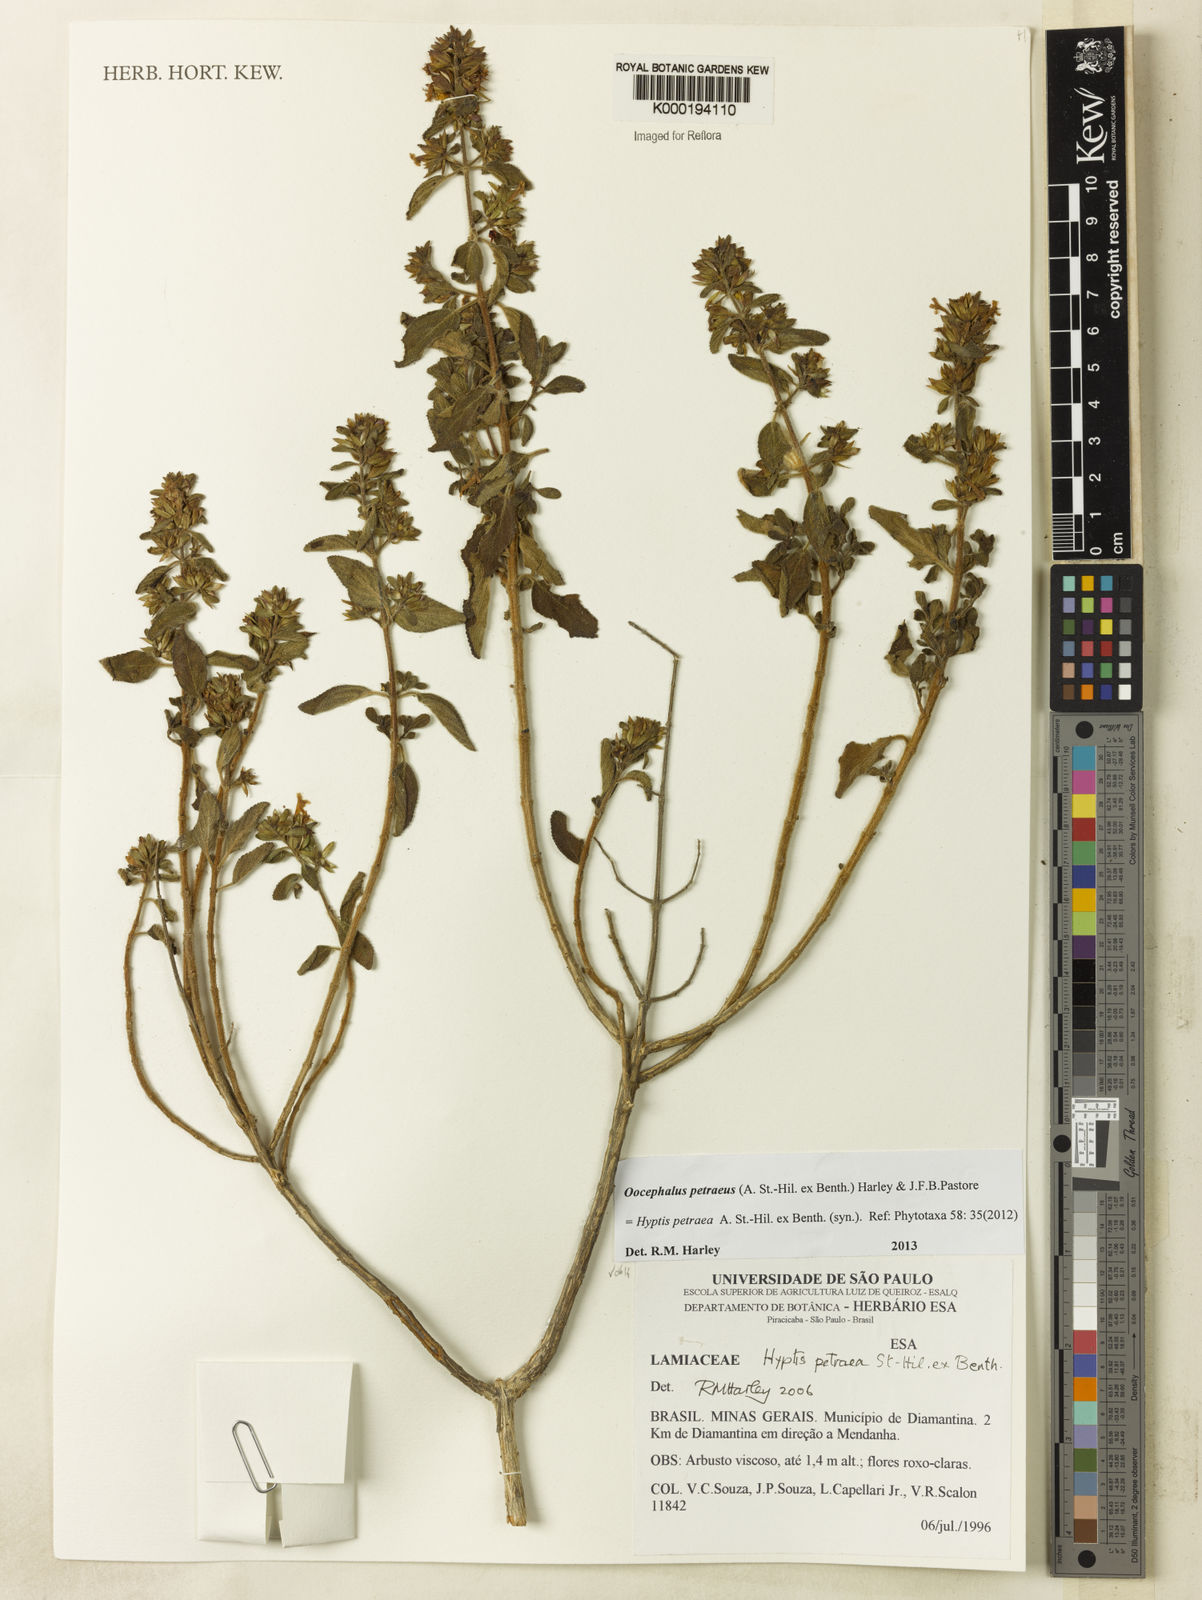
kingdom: Plantae
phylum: Tracheophyta
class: Magnoliopsida
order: Lamiales
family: Lamiaceae
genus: Oocephalus
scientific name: Oocephalus petraeus
